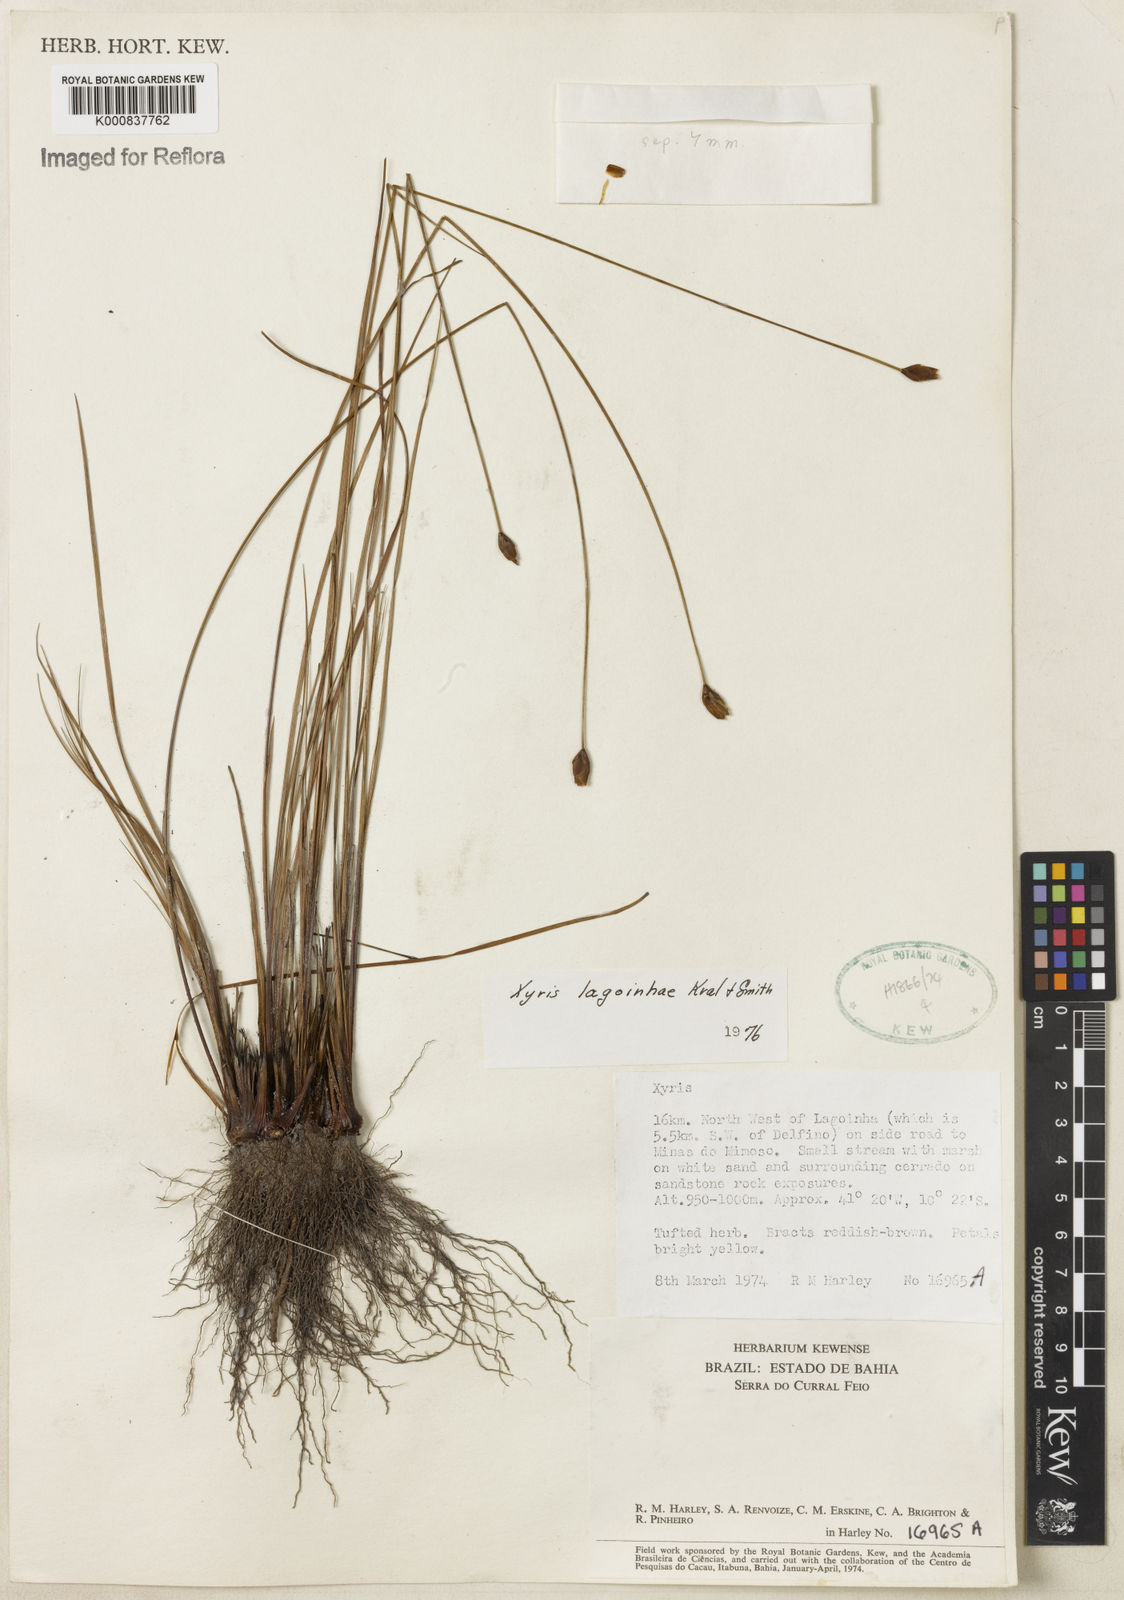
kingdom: Plantae
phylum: Tracheophyta
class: Liliopsida
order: Poales
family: Xyridaceae
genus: Xyris
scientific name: Xyris
